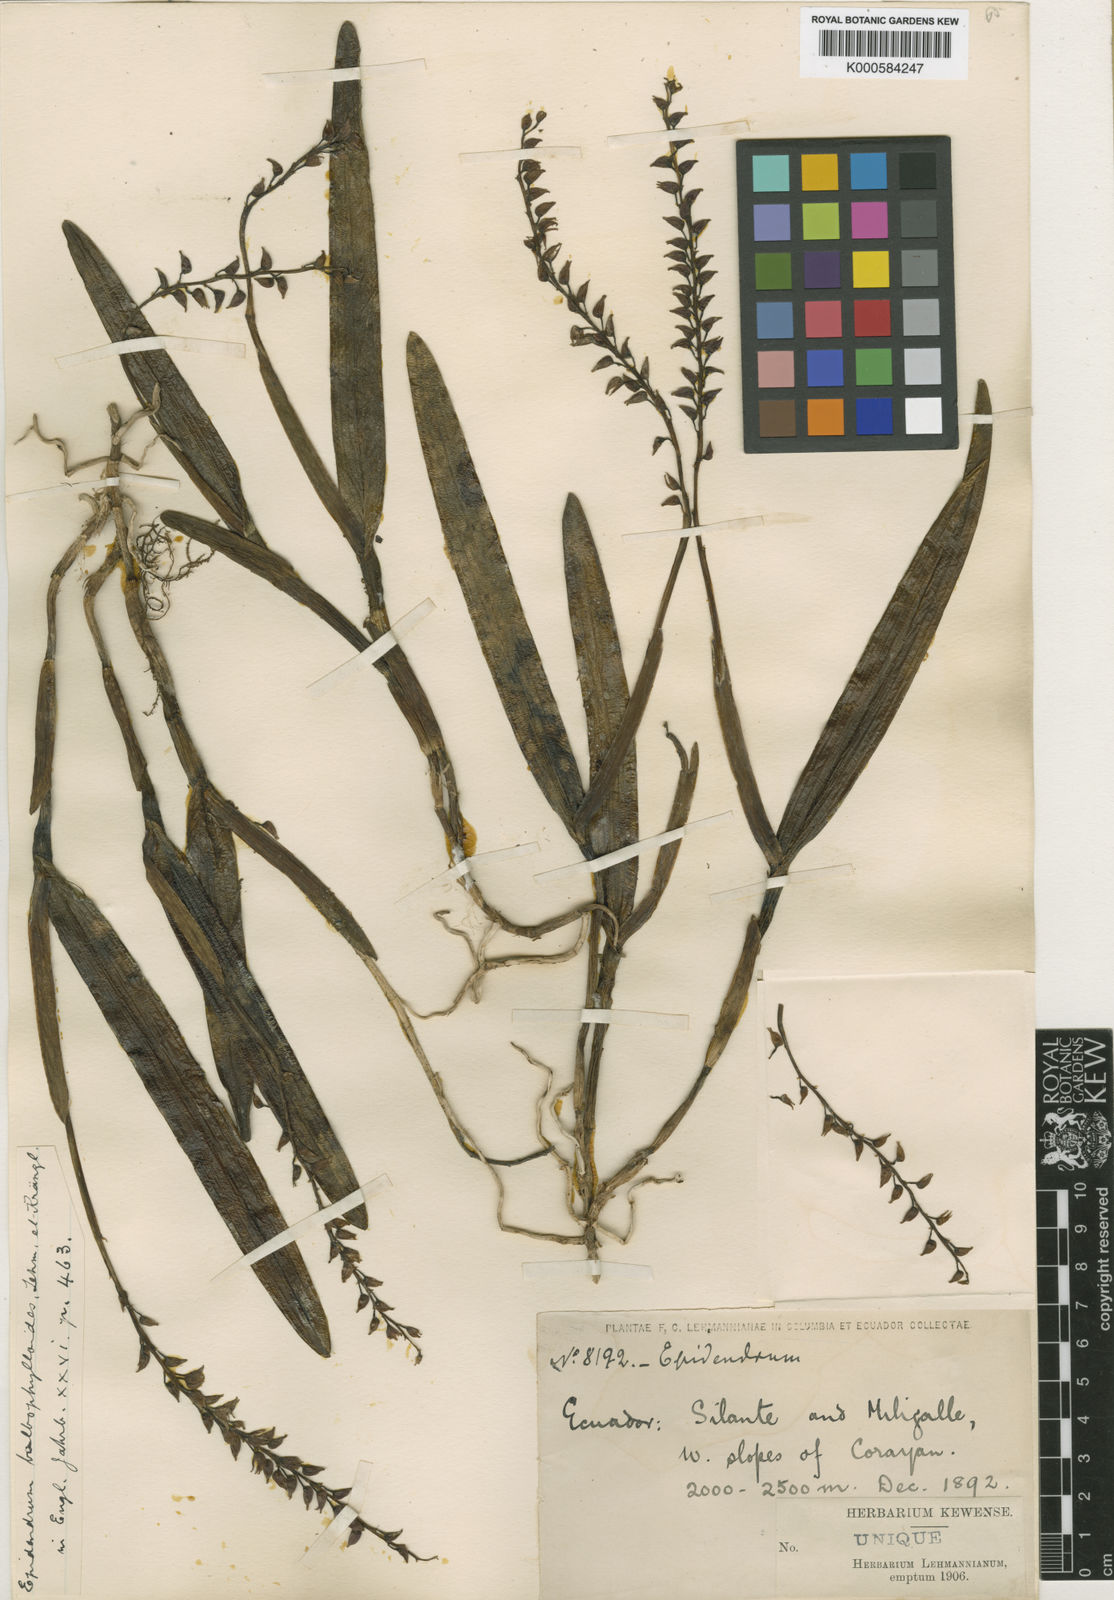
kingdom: Plantae
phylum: Tracheophyta
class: Liliopsida
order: Asparagales
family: Orchidaceae
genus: Epidendrum
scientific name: Epidendrum
